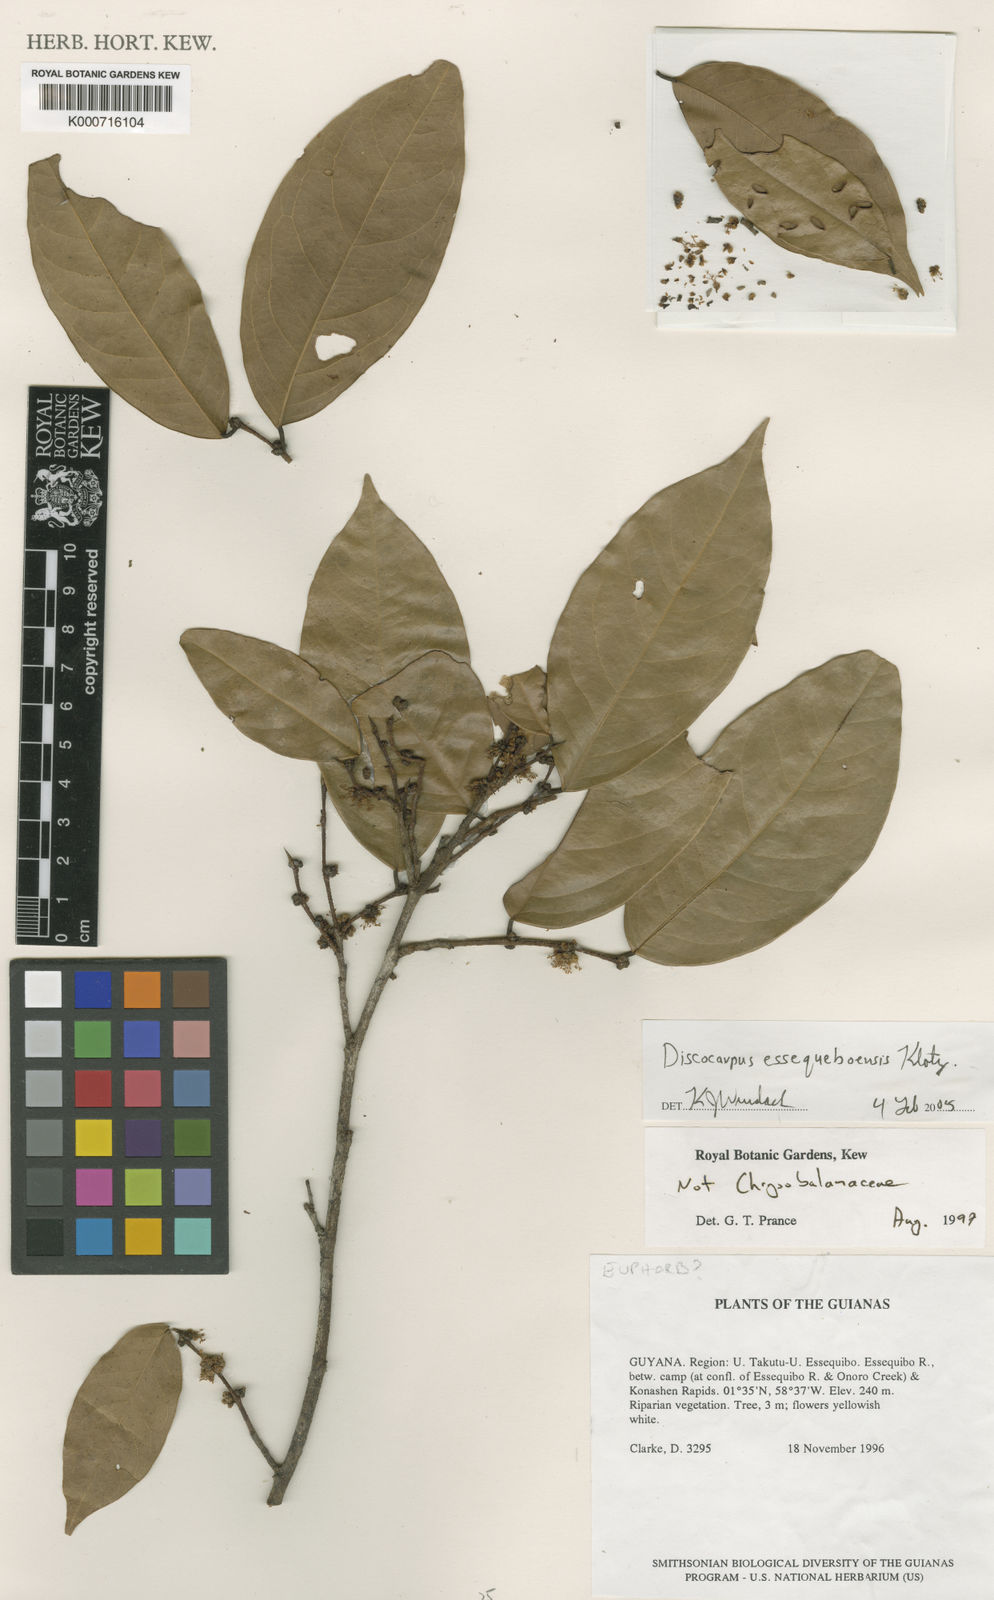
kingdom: Plantae
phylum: Tracheophyta
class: Magnoliopsida
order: Malpighiales
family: Phyllanthaceae
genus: Discocarpus
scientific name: Discocarpus essequeboensis
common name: Sqaure-wood
